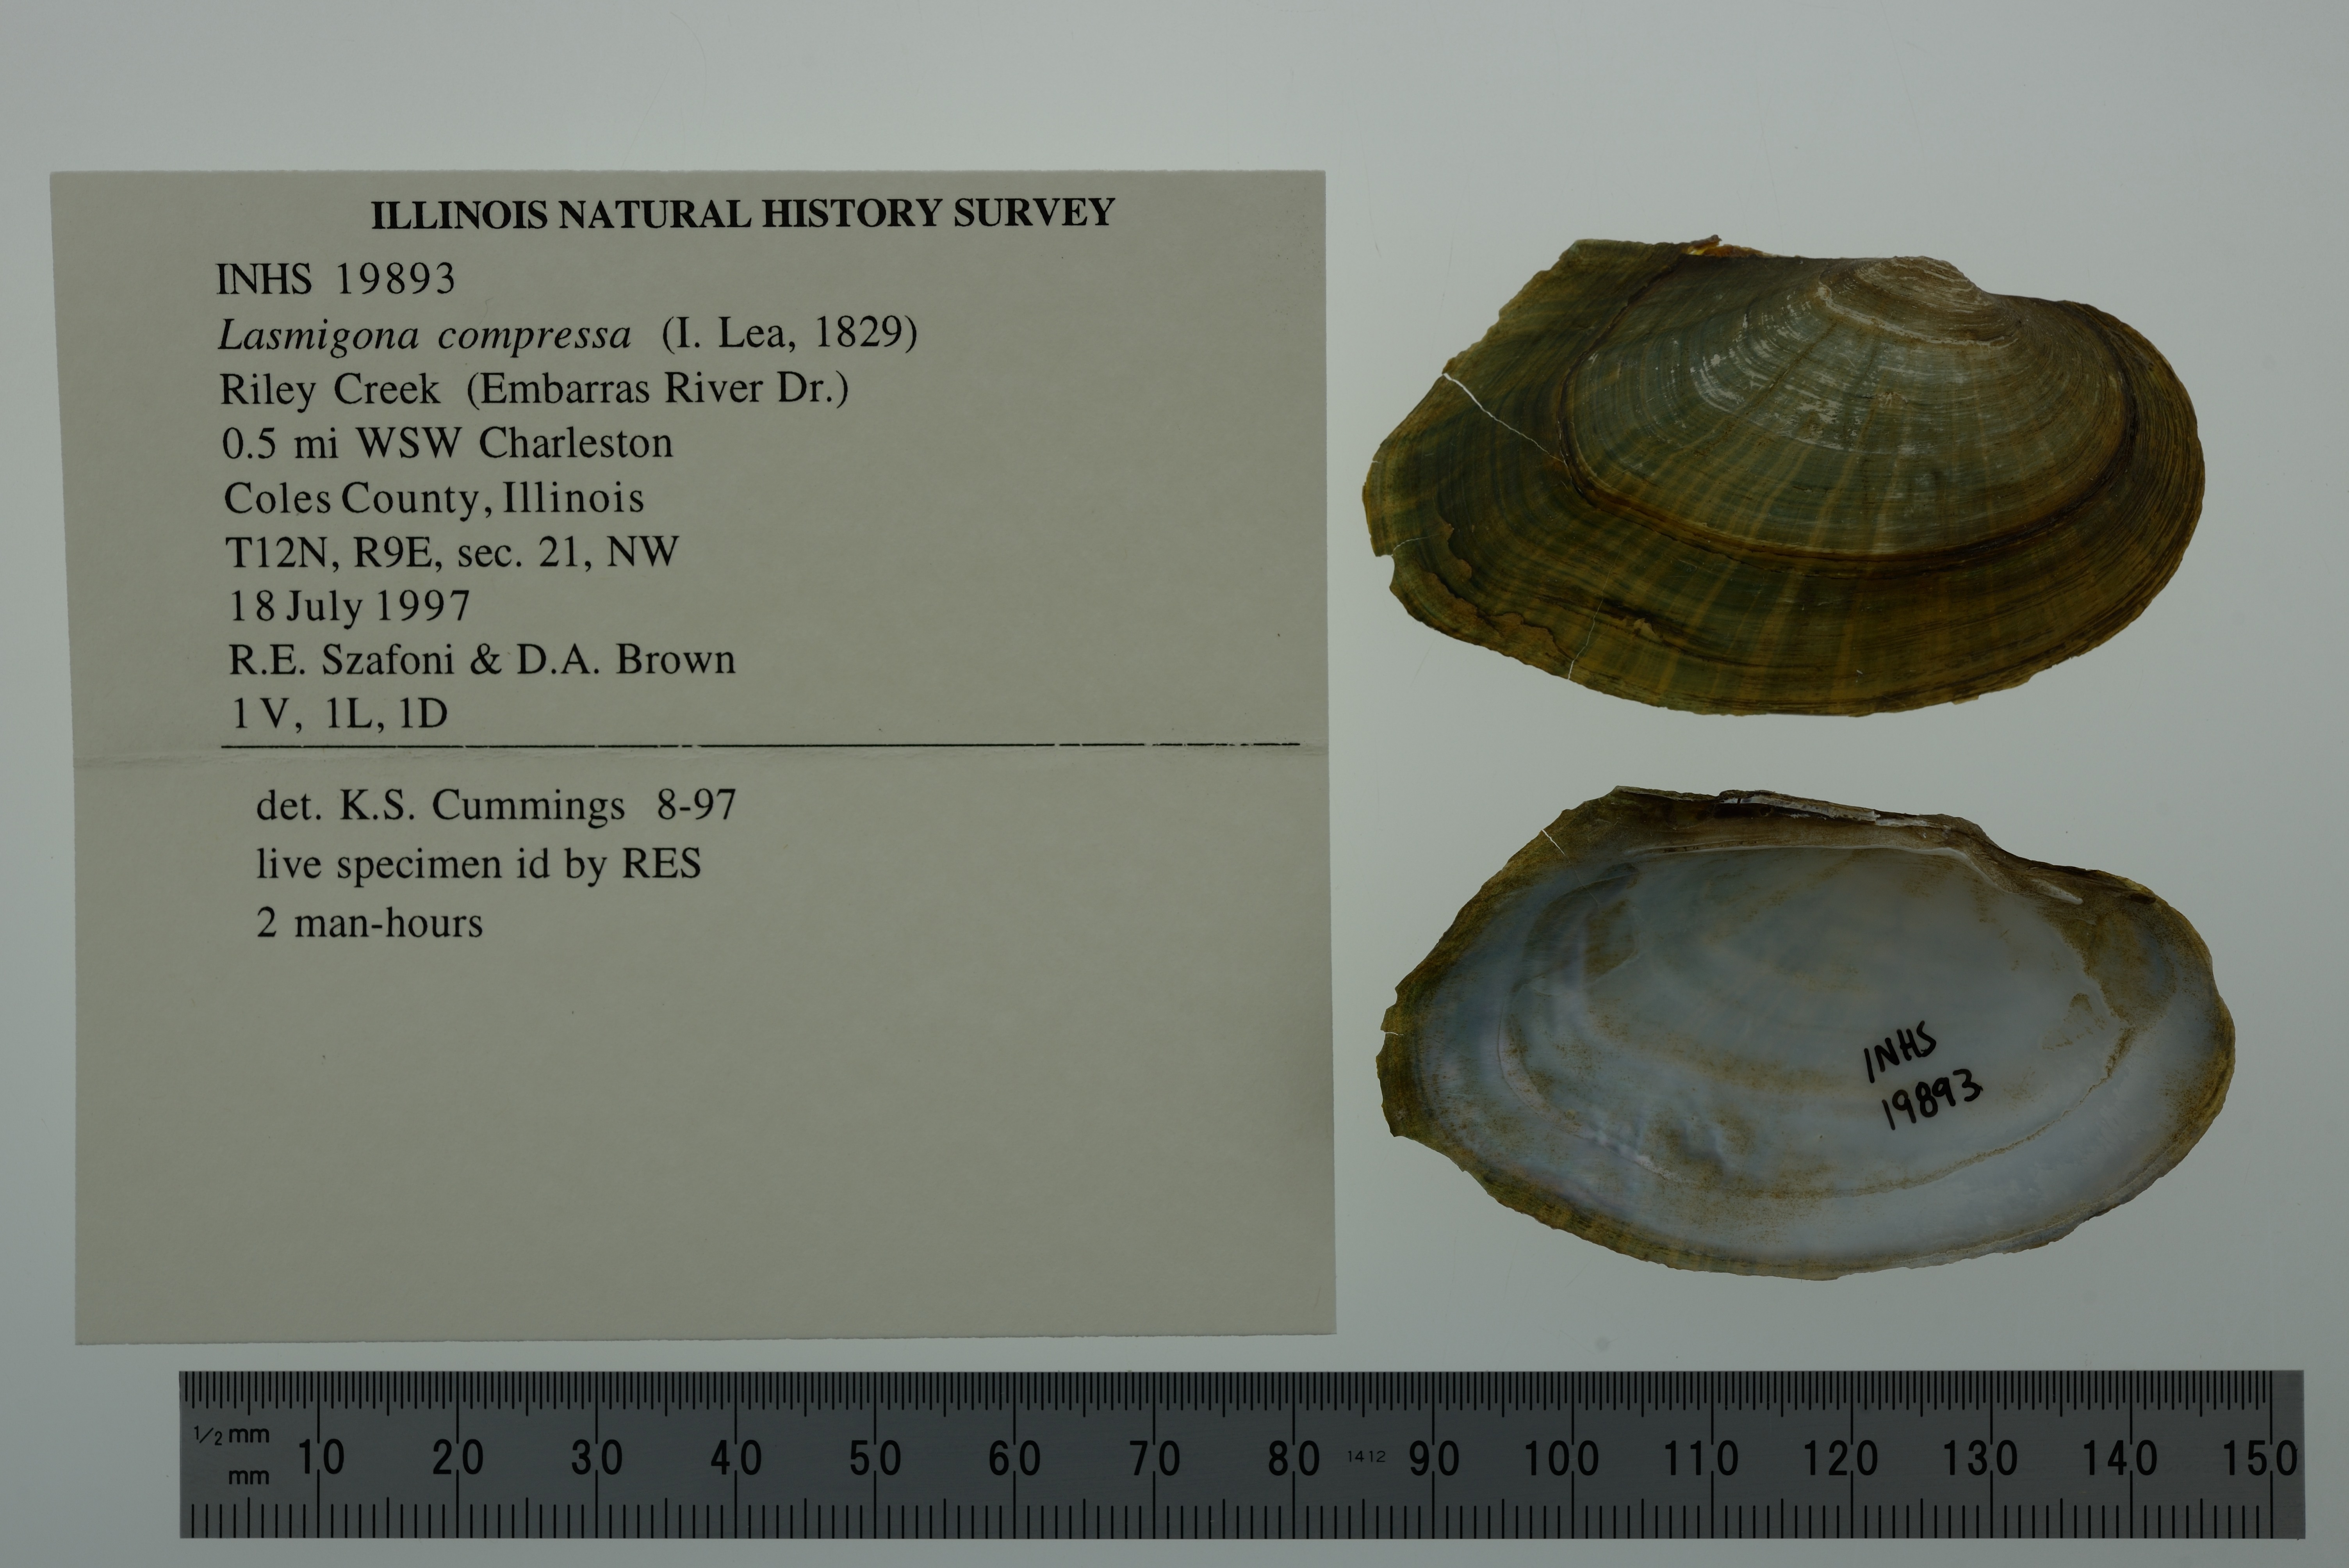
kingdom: Animalia
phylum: Mollusca
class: Bivalvia
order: Unionida
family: Unionidae
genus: Lasmigona
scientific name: Lasmigona compressa
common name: Creek heelsplitter
